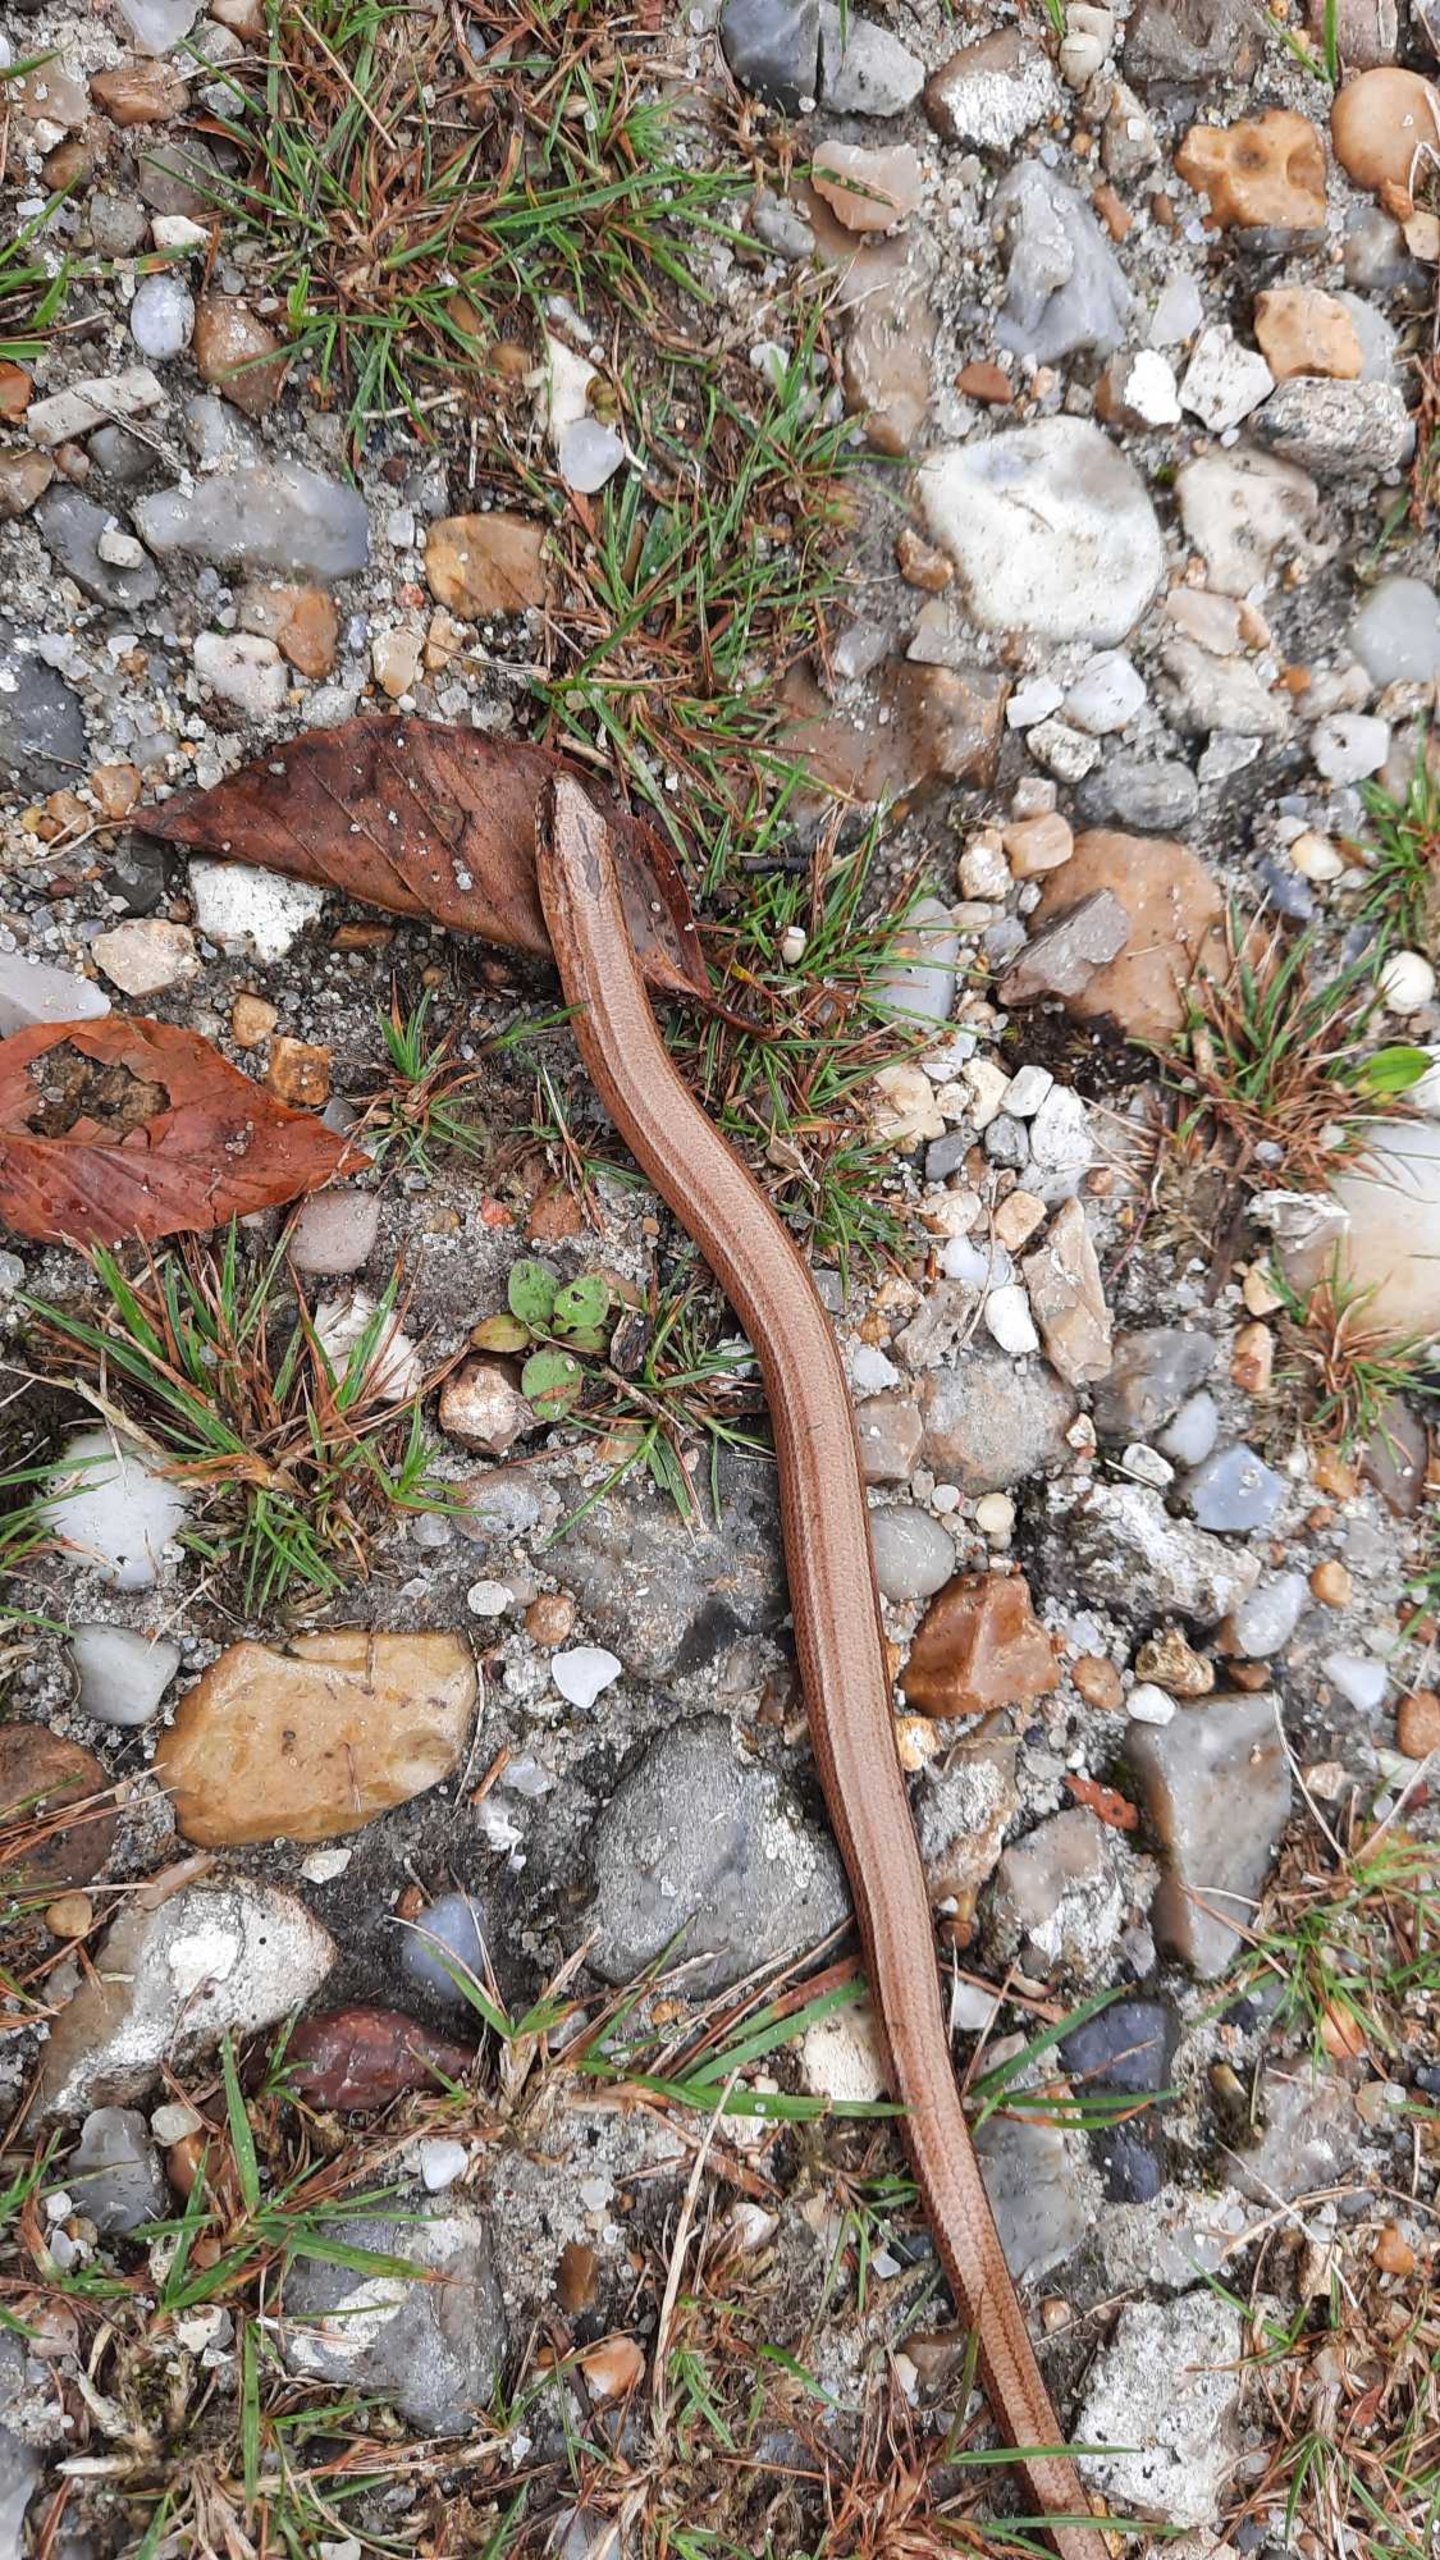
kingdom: Animalia
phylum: Chordata
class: Squamata
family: Anguidae
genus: Anguis
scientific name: Anguis fragilis
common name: Stålorm
